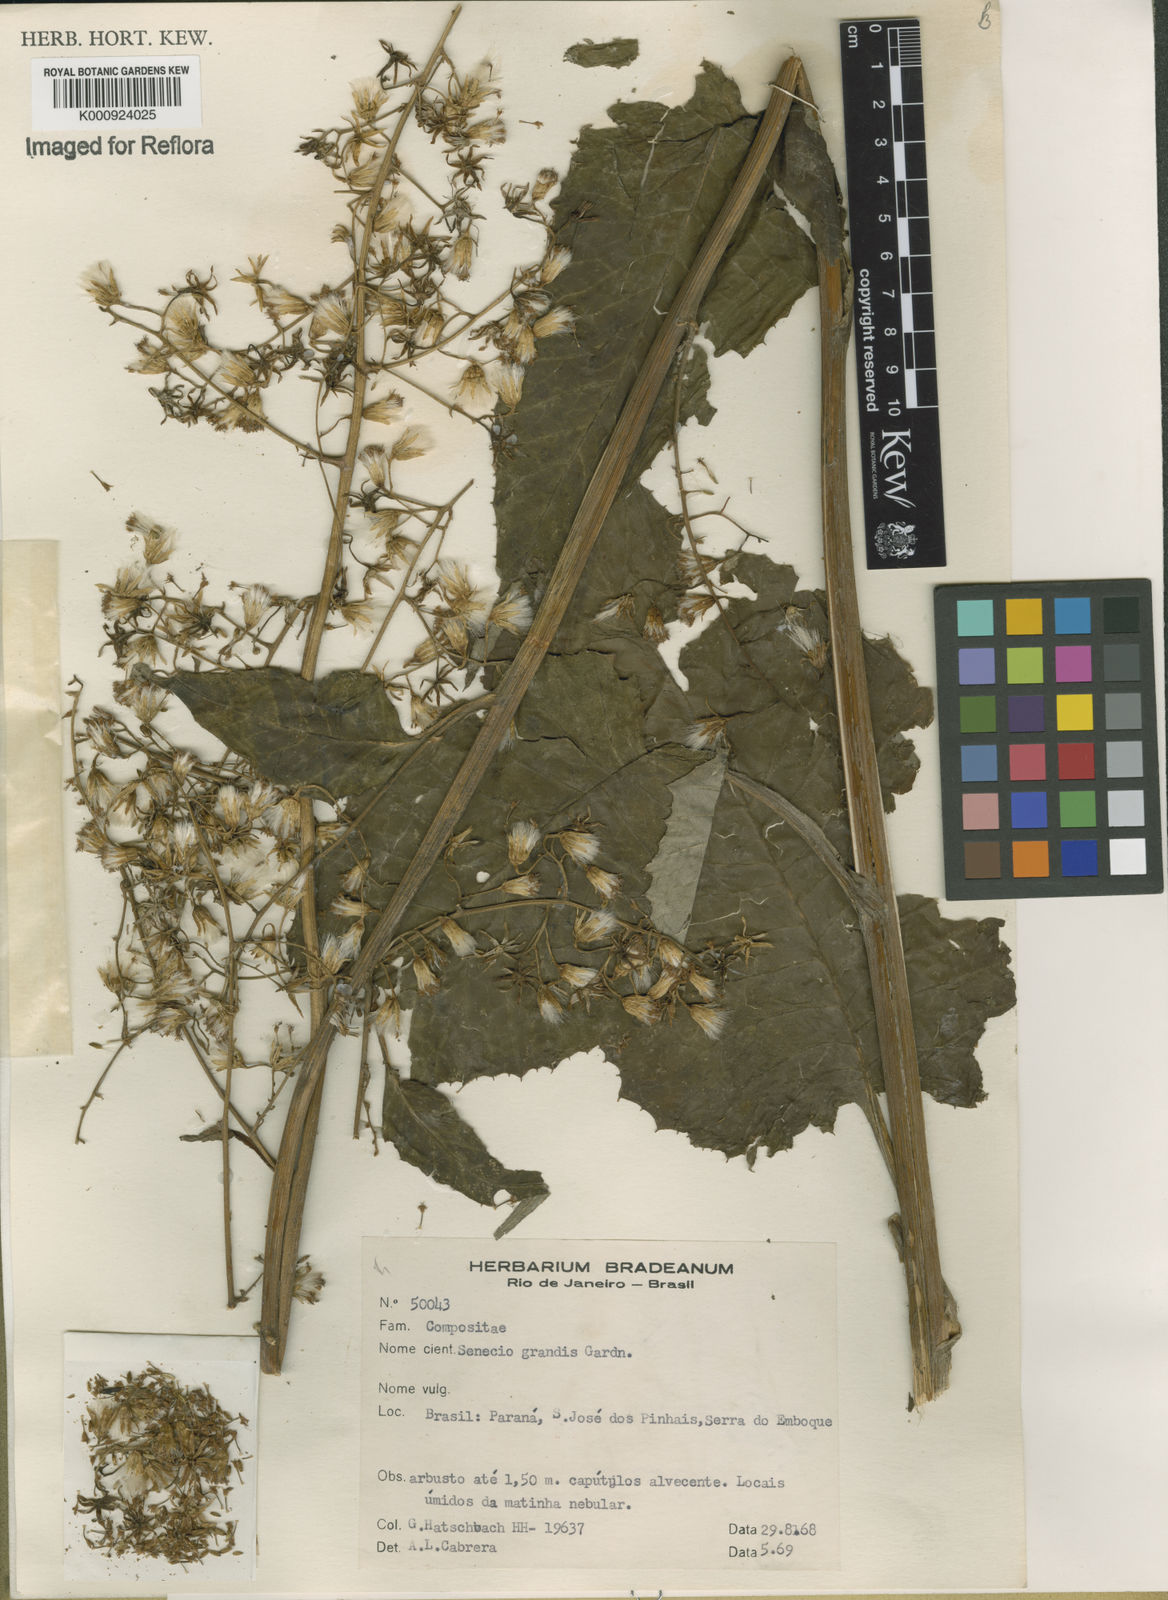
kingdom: Plantae
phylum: Tracheophyta
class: Magnoliopsida
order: Asterales
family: Asteraceae
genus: Senecio
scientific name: Senecio grandis
